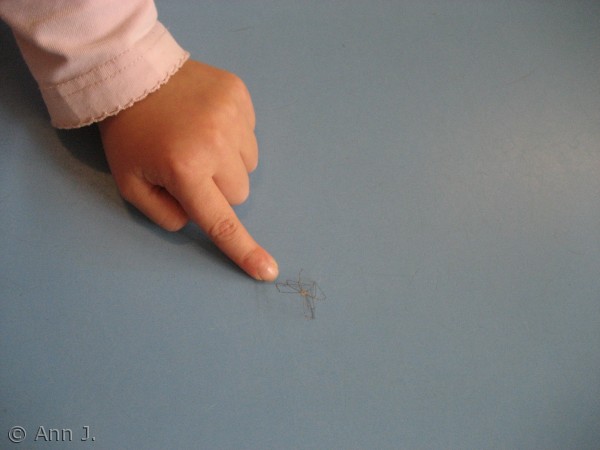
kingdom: Animalia
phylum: Arthropoda
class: Arachnida
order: Araneae
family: Pholcidae
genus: Pholcus
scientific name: Pholcus phalangioides
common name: Mejeredderkop
